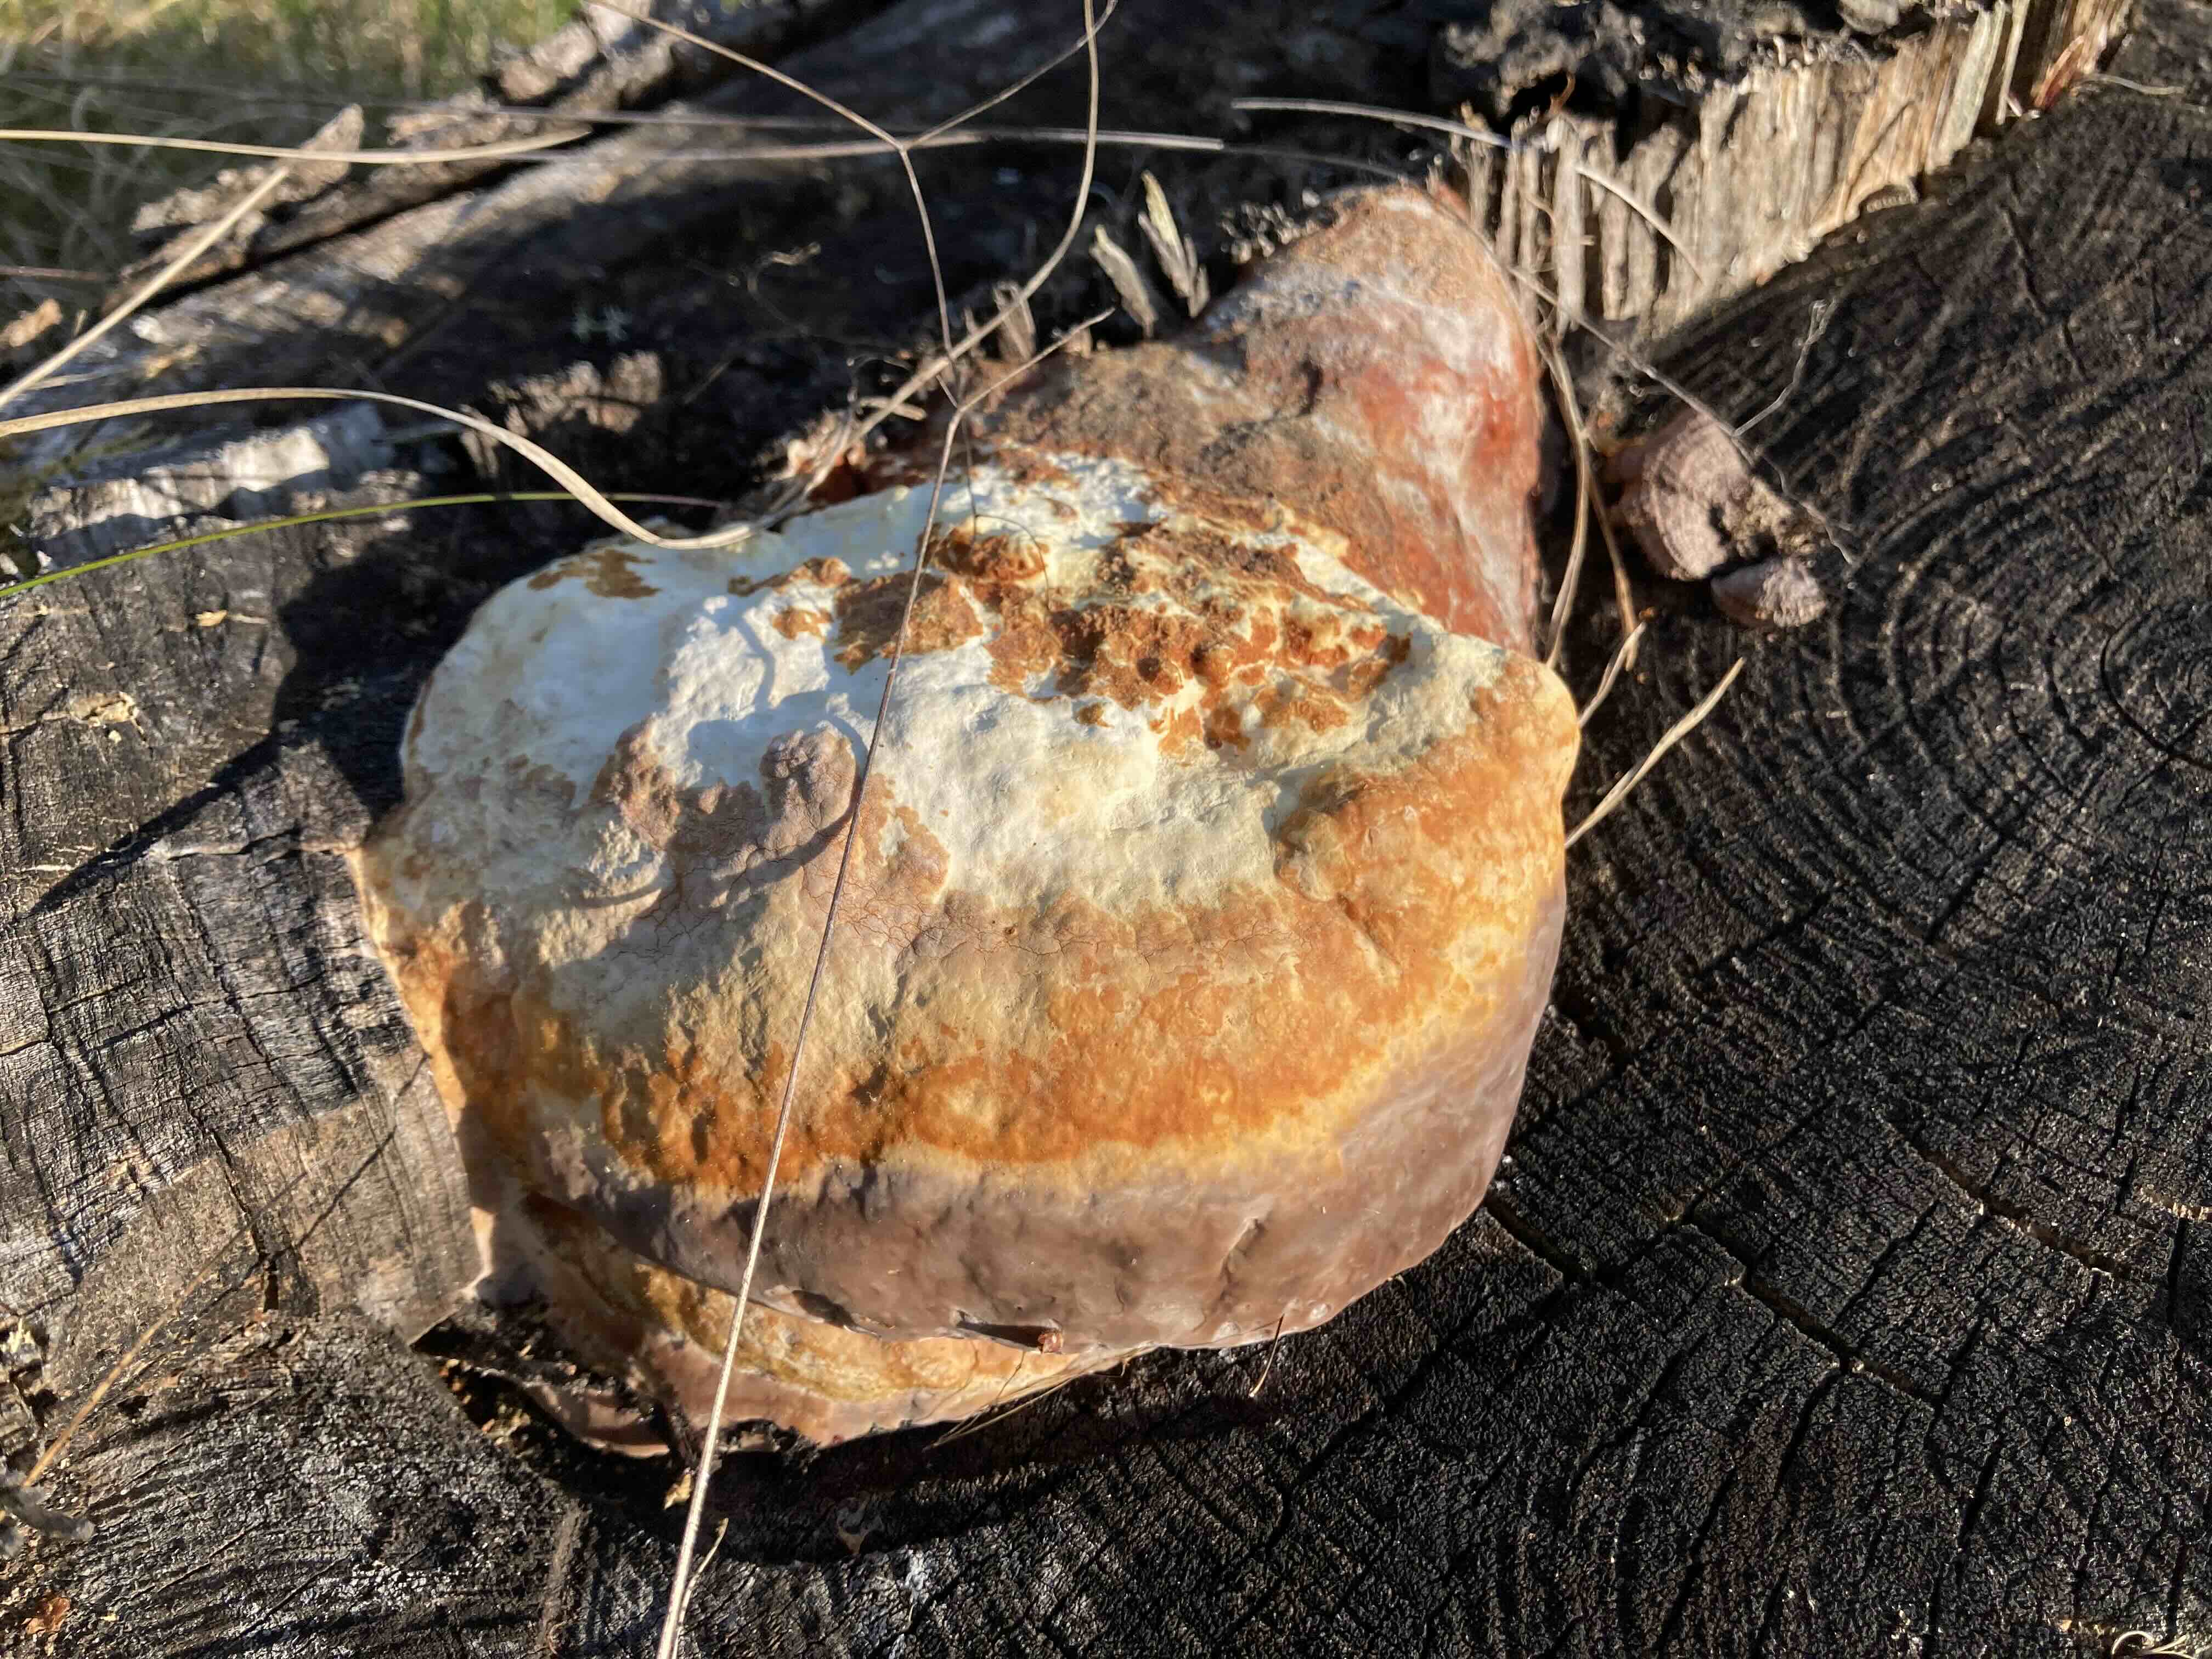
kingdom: Fungi
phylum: Basidiomycota
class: Agaricomycetes
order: Polyporales
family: Fomitopsidaceae
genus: Fomitopsis
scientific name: Fomitopsis pinicola
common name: randbæltet hovporesvamp
